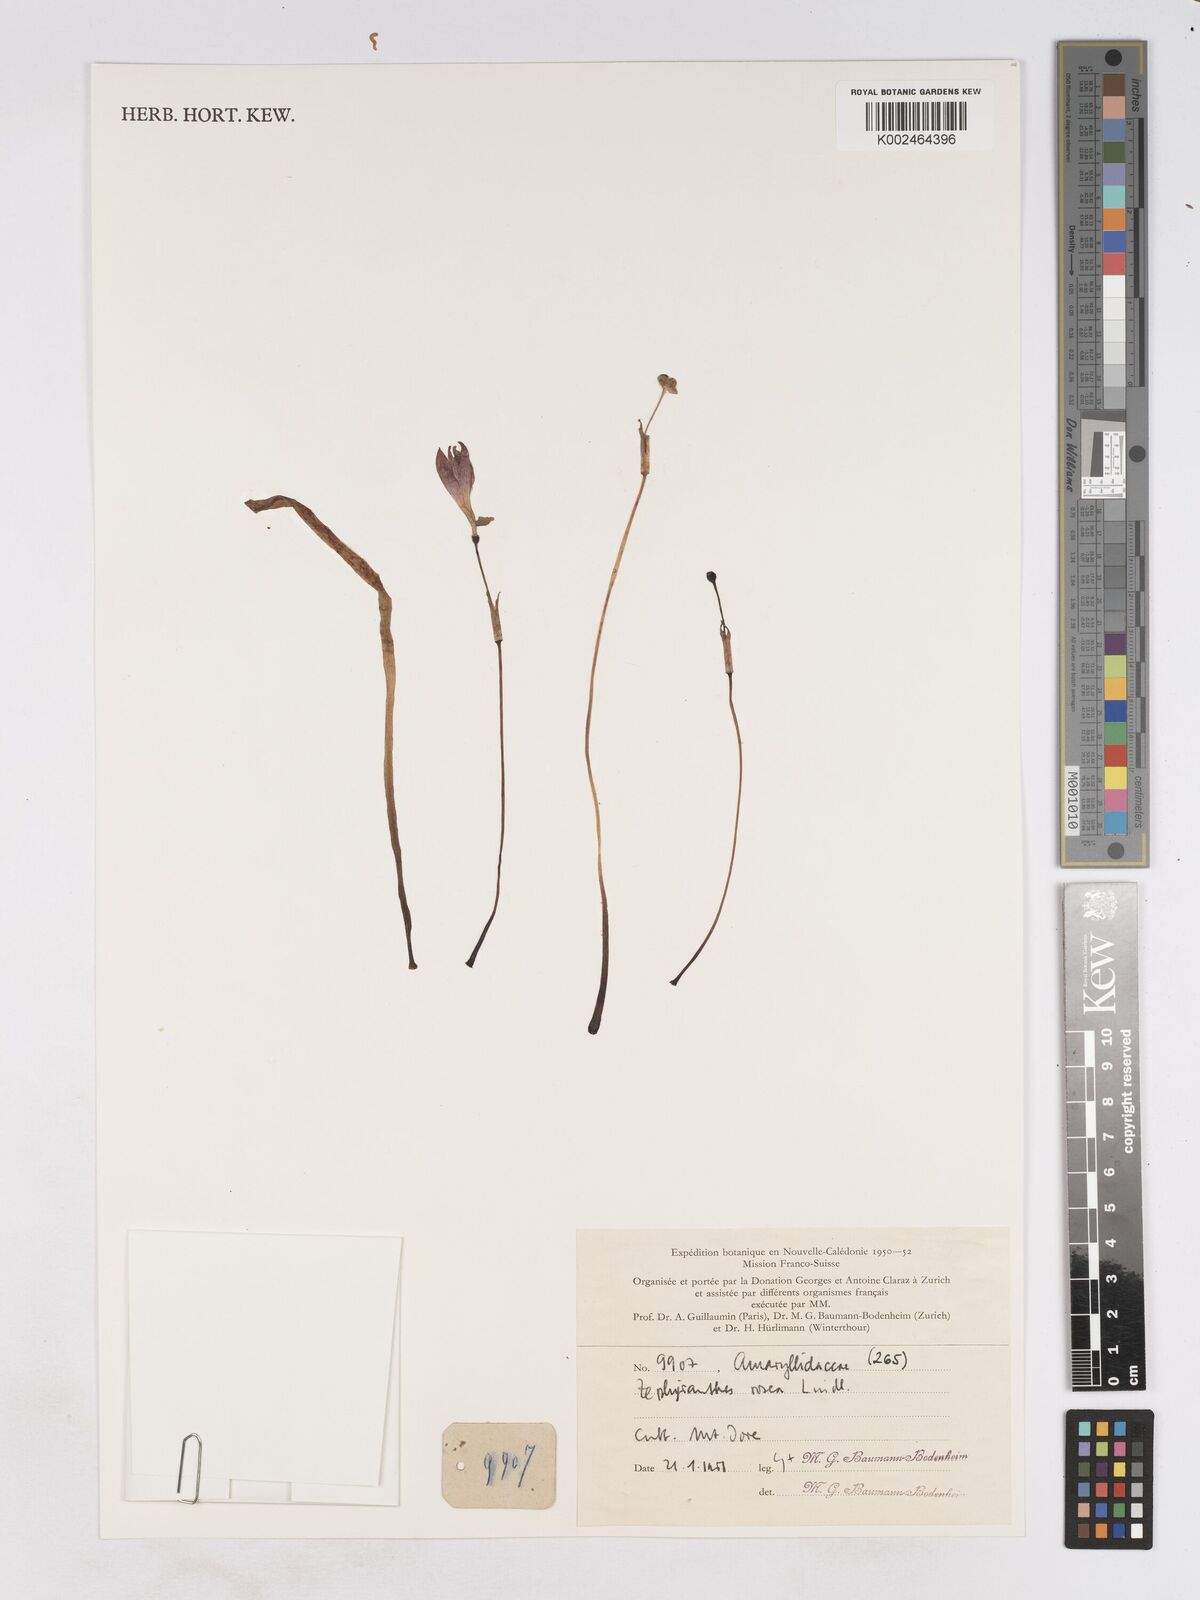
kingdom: Plantae
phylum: Tracheophyta
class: Liliopsida
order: Asparagales
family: Amaryllidaceae
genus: Zephyranthes
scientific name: Zephyranthes rosea
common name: Cuban zephyrlily
